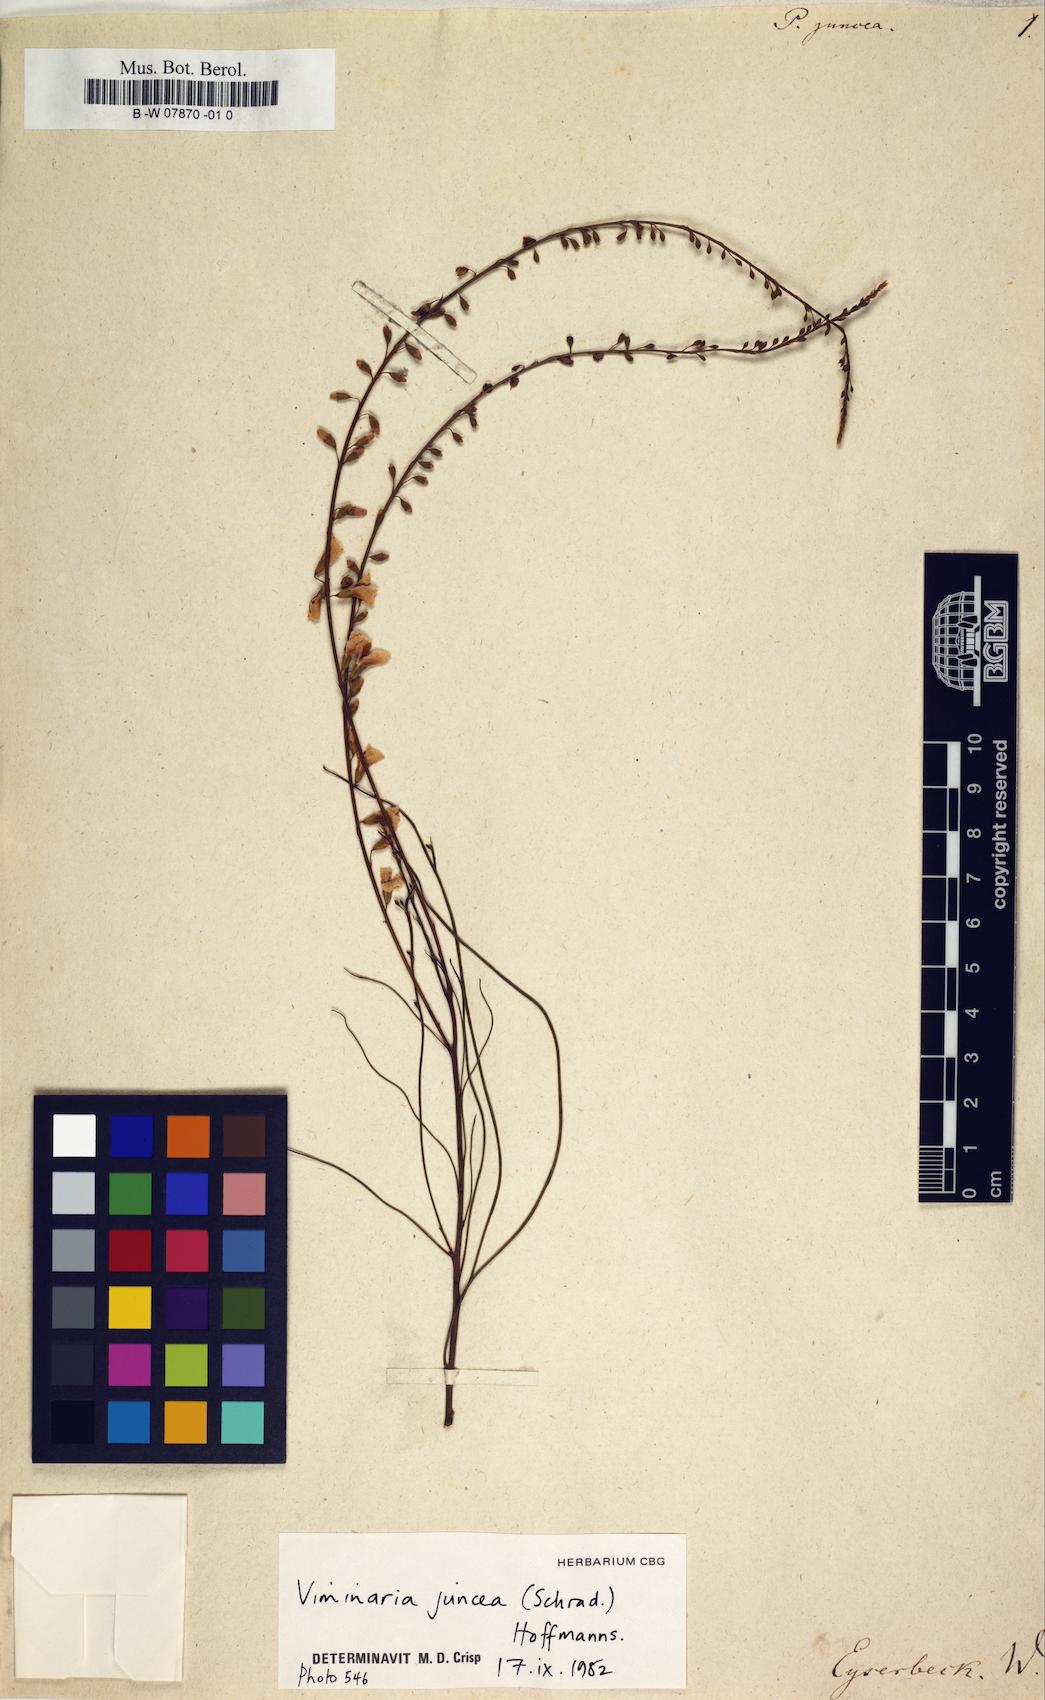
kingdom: Plantae
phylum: Tracheophyta
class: Magnoliopsida
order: Fabales
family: Fabaceae
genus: Viminaria
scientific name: Viminaria juncea
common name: Golden spray
